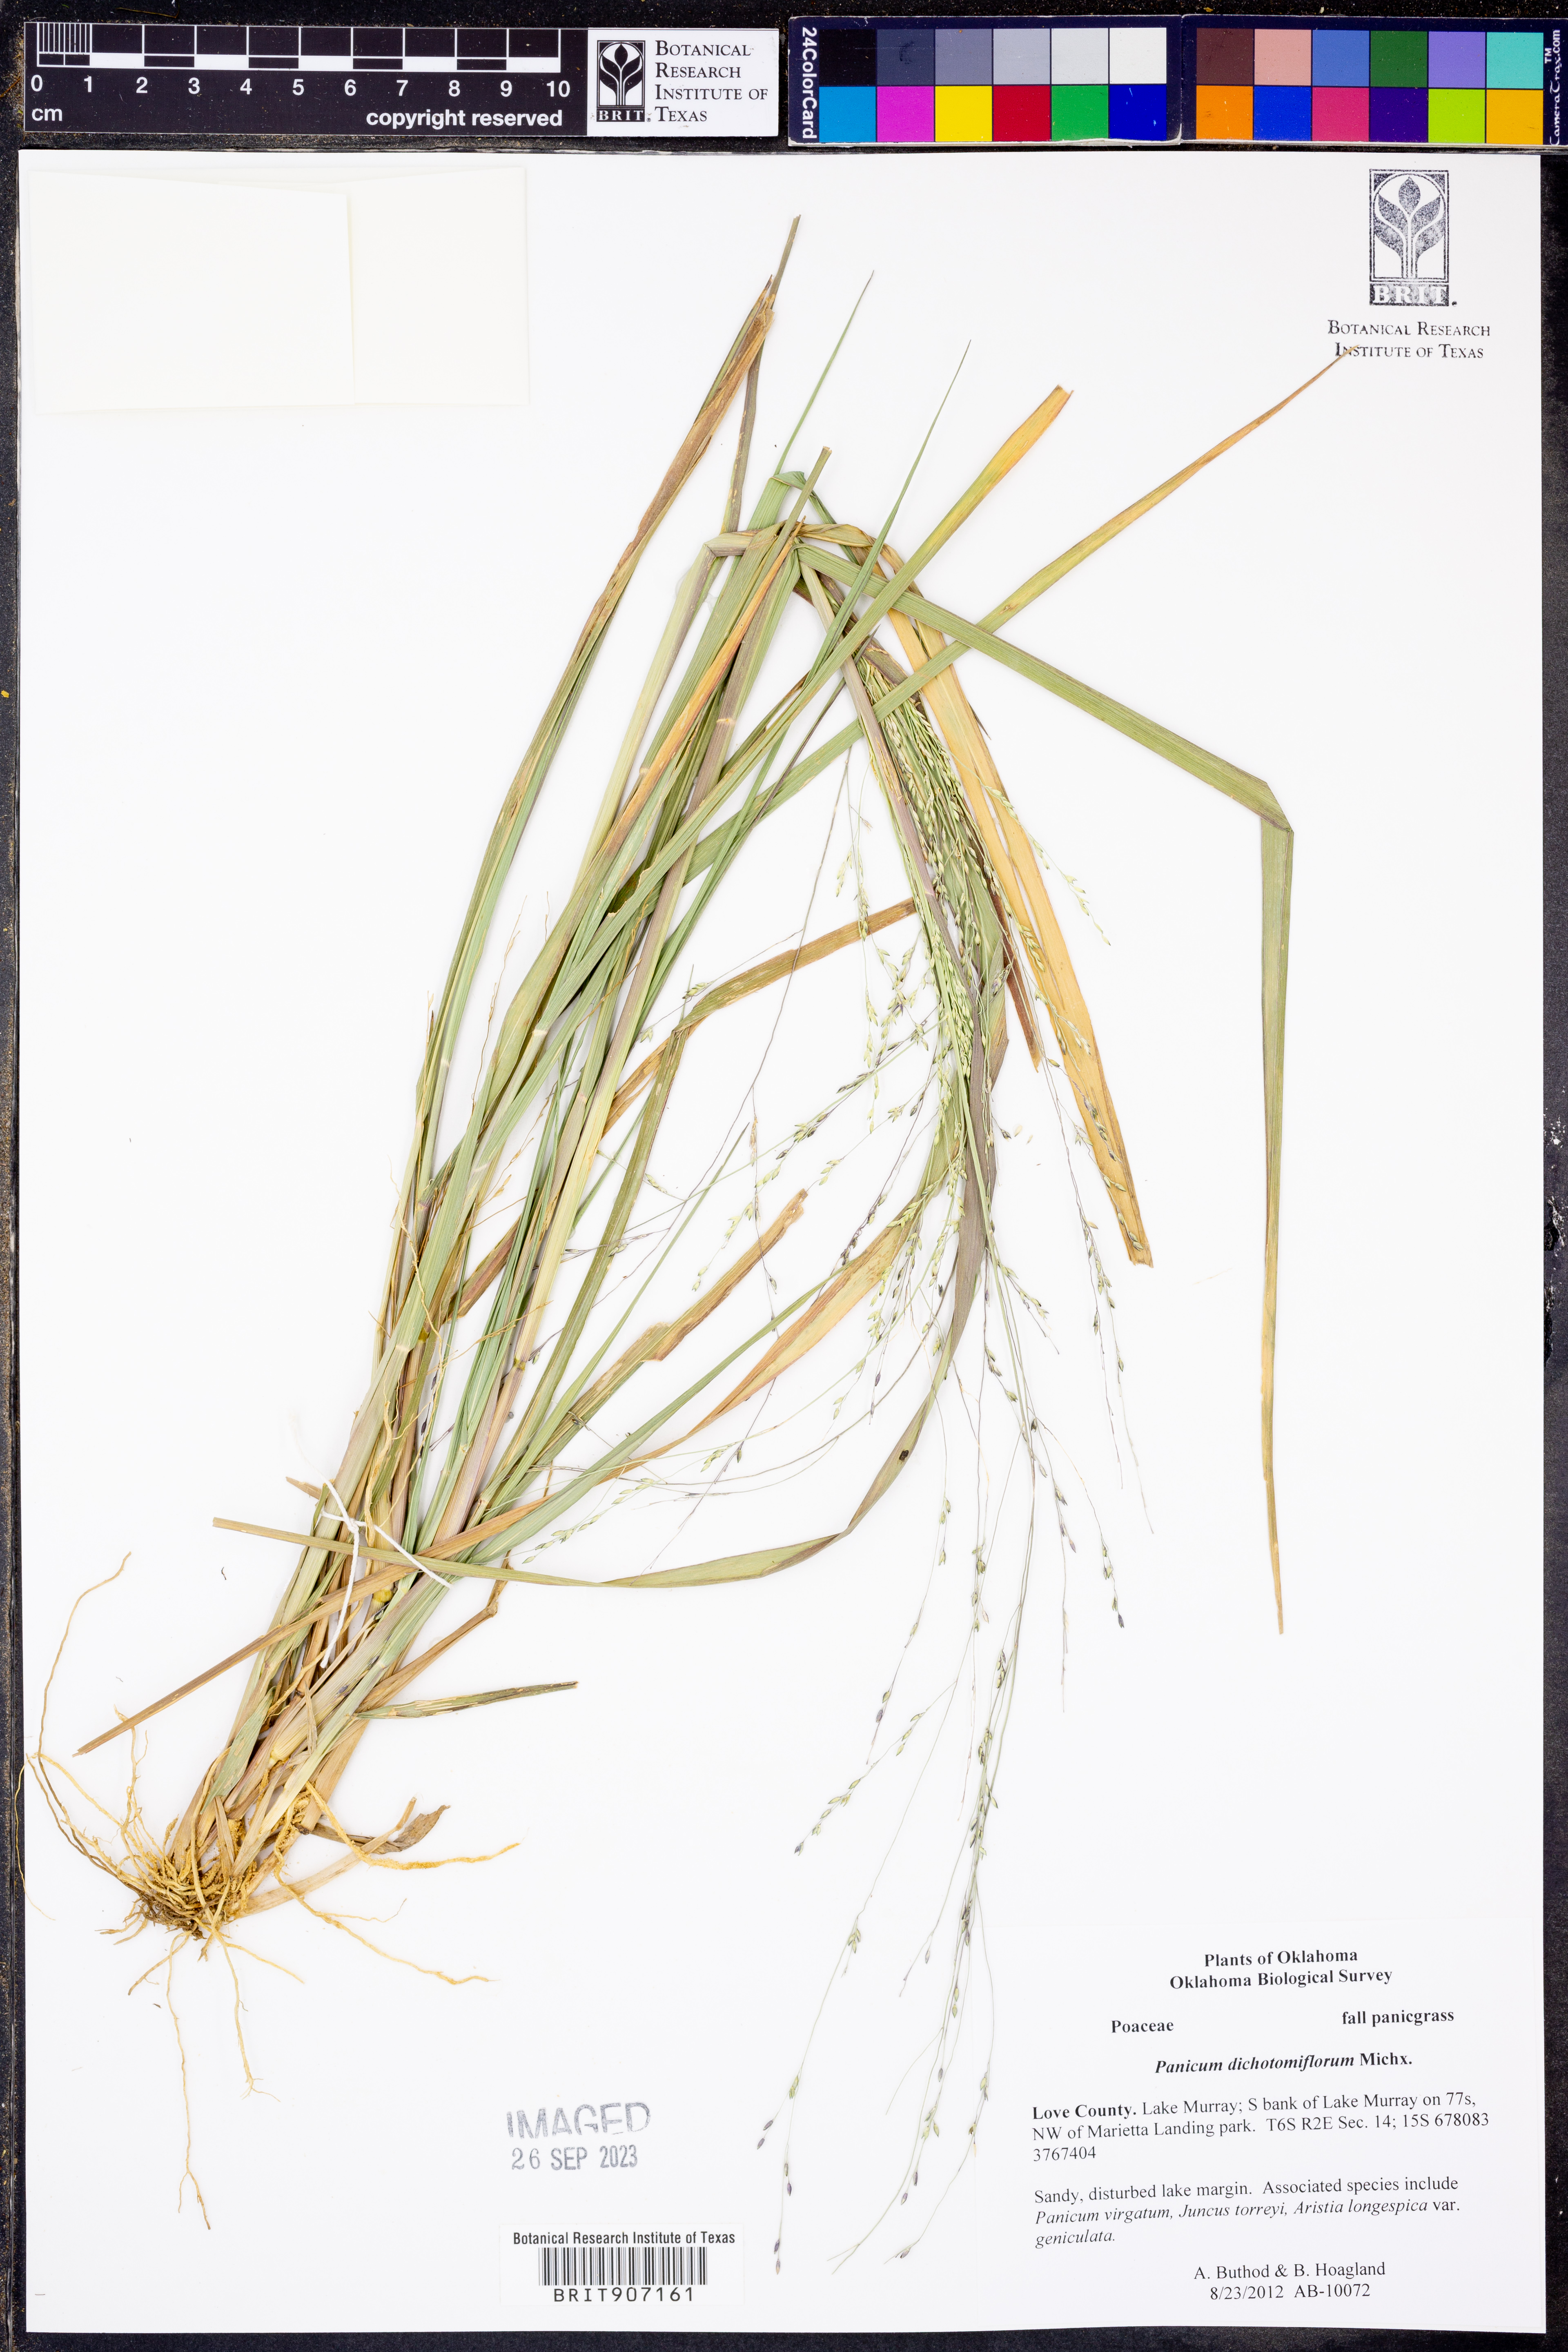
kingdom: Plantae
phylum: Tracheophyta
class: Liliopsida
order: Poales
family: Poaceae
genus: Panicum
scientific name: Panicum dichotomiflorum
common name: Autumn millet
